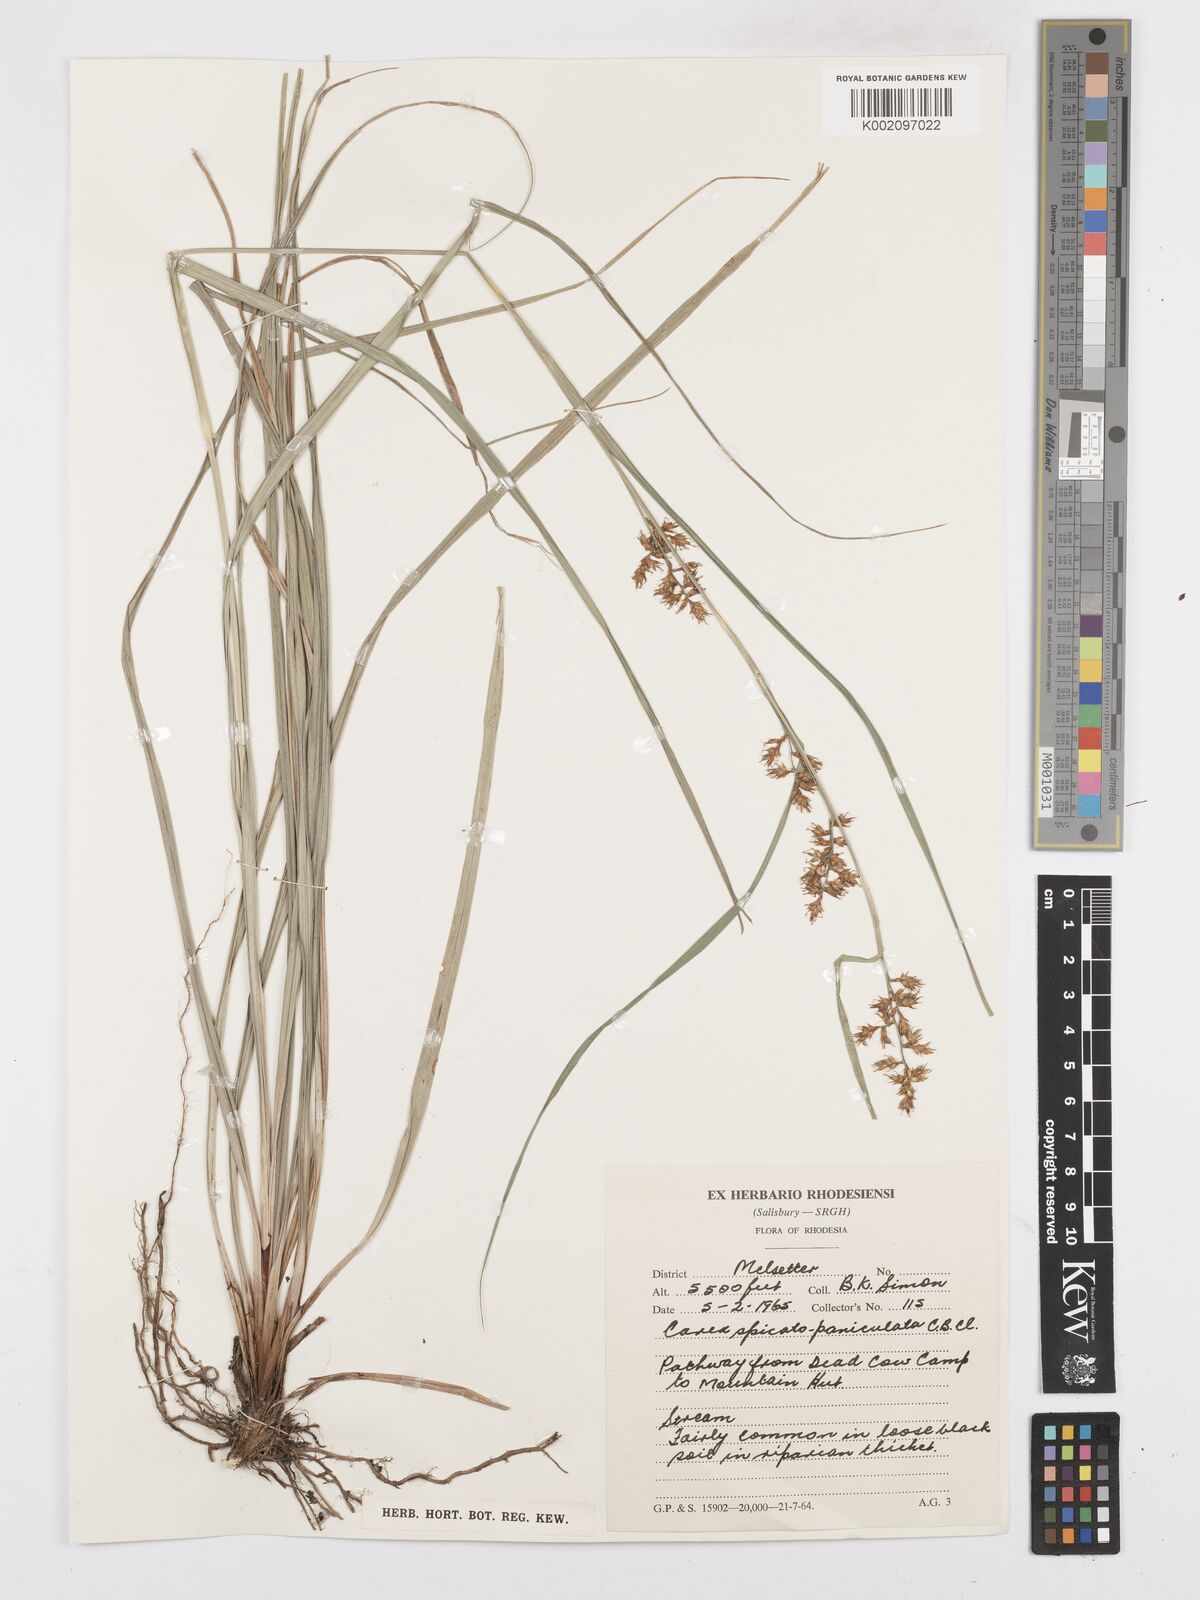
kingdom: Plantae
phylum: Tracheophyta
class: Liliopsida
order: Poales
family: Cyperaceae
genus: Carex
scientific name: Carex spicatopaniculata
